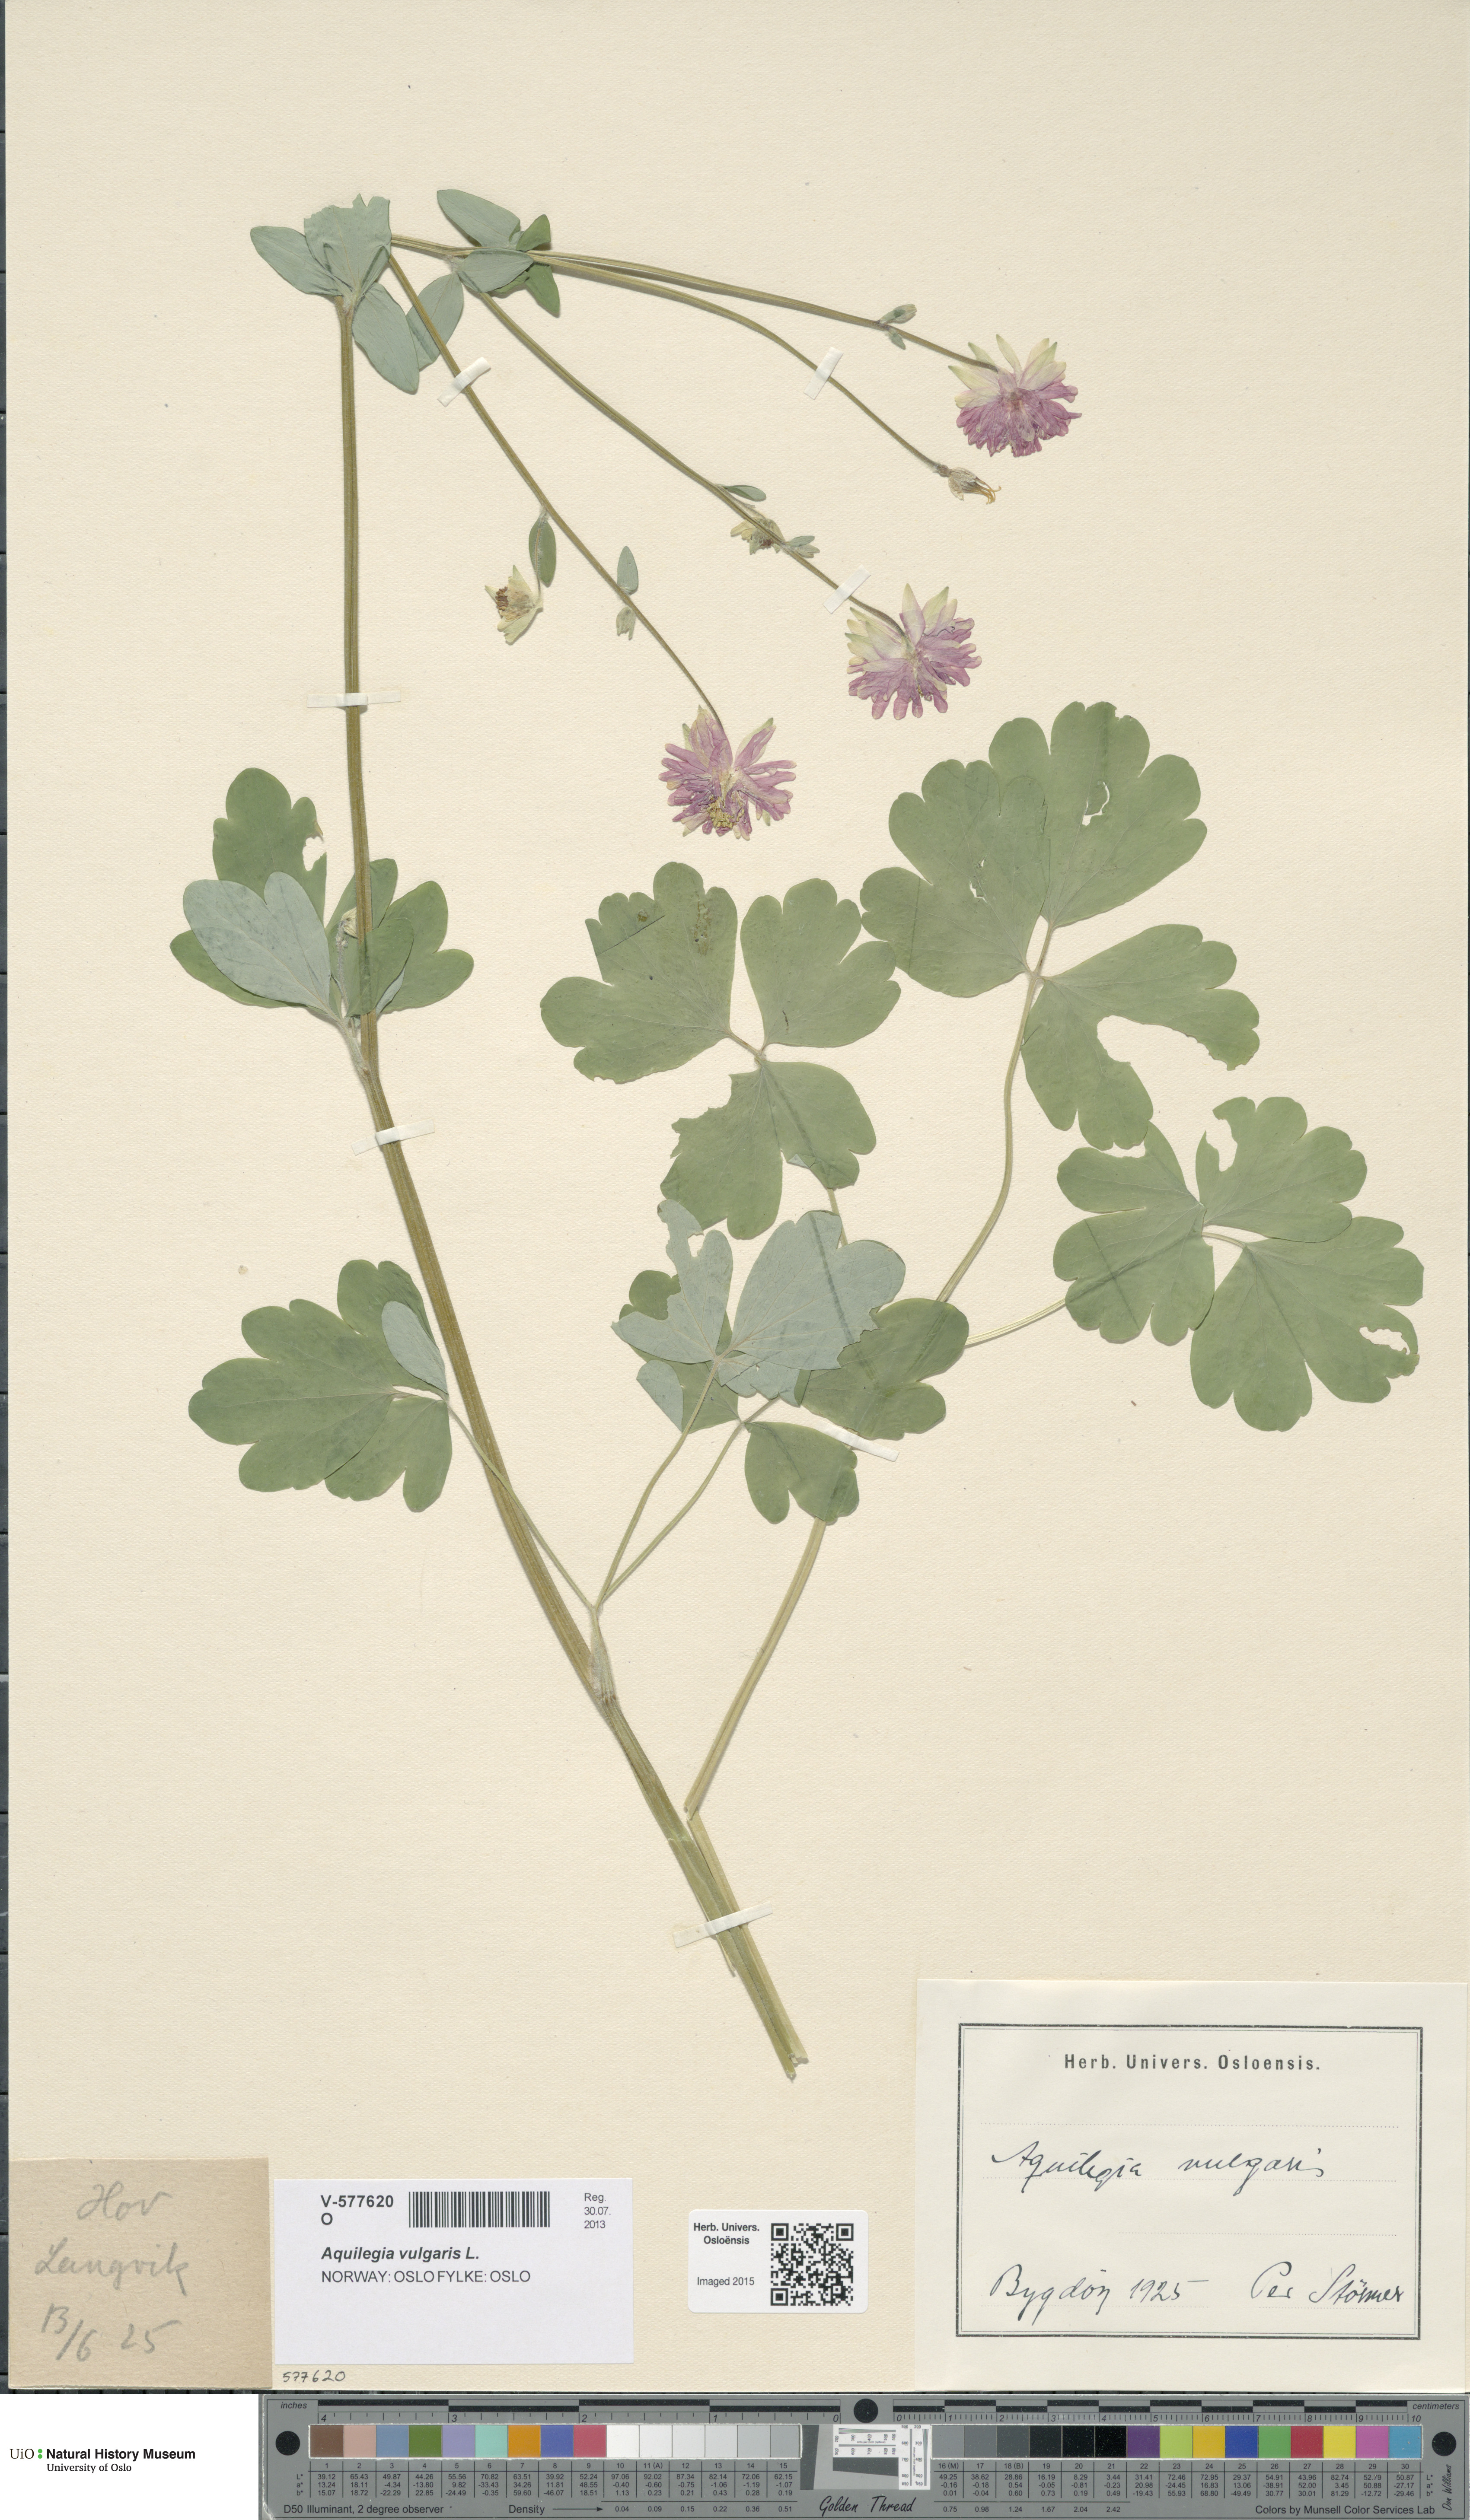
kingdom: Plantae
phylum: Tracheophyta
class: Magnoliopsida
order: Ranunculales
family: Ranunculaceae
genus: Aquilegia
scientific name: Aquilegia vulgaris
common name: Columbine
